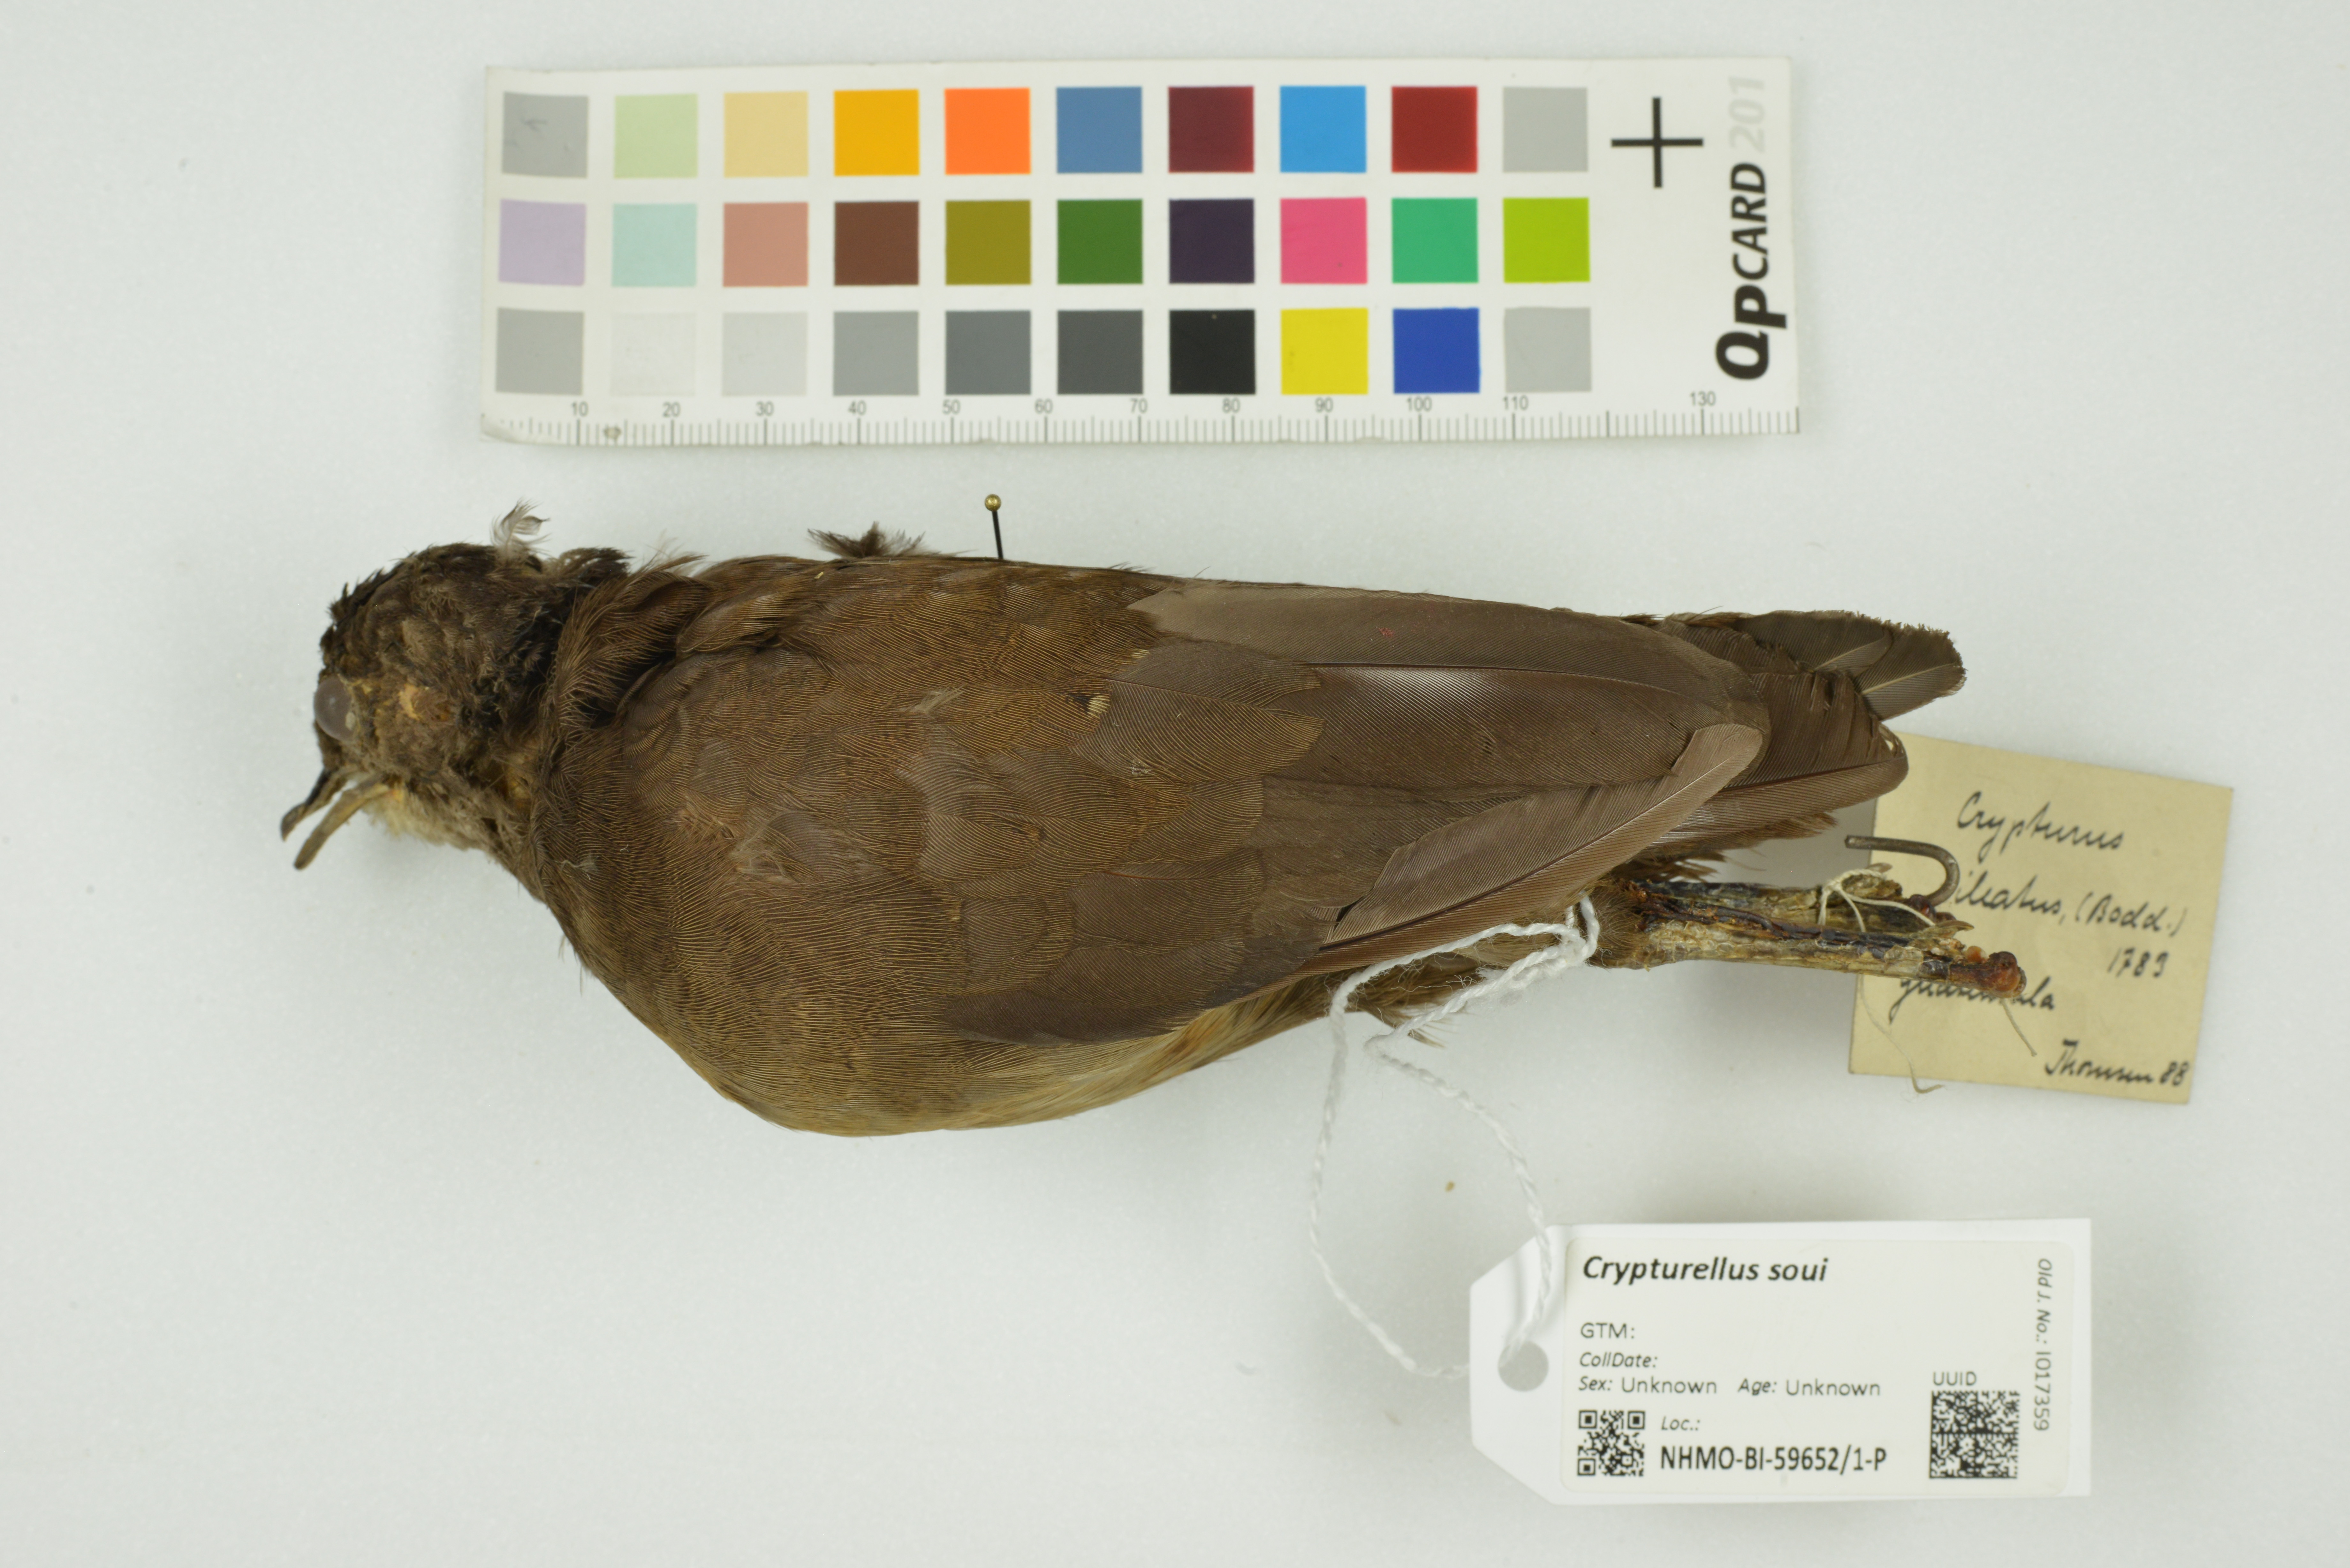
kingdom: Animalia
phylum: Chordata
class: Aves
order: Tinamiformes
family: Tinamidae
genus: Crypturellus
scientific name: Crypturellus soui
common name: Little tinamou
